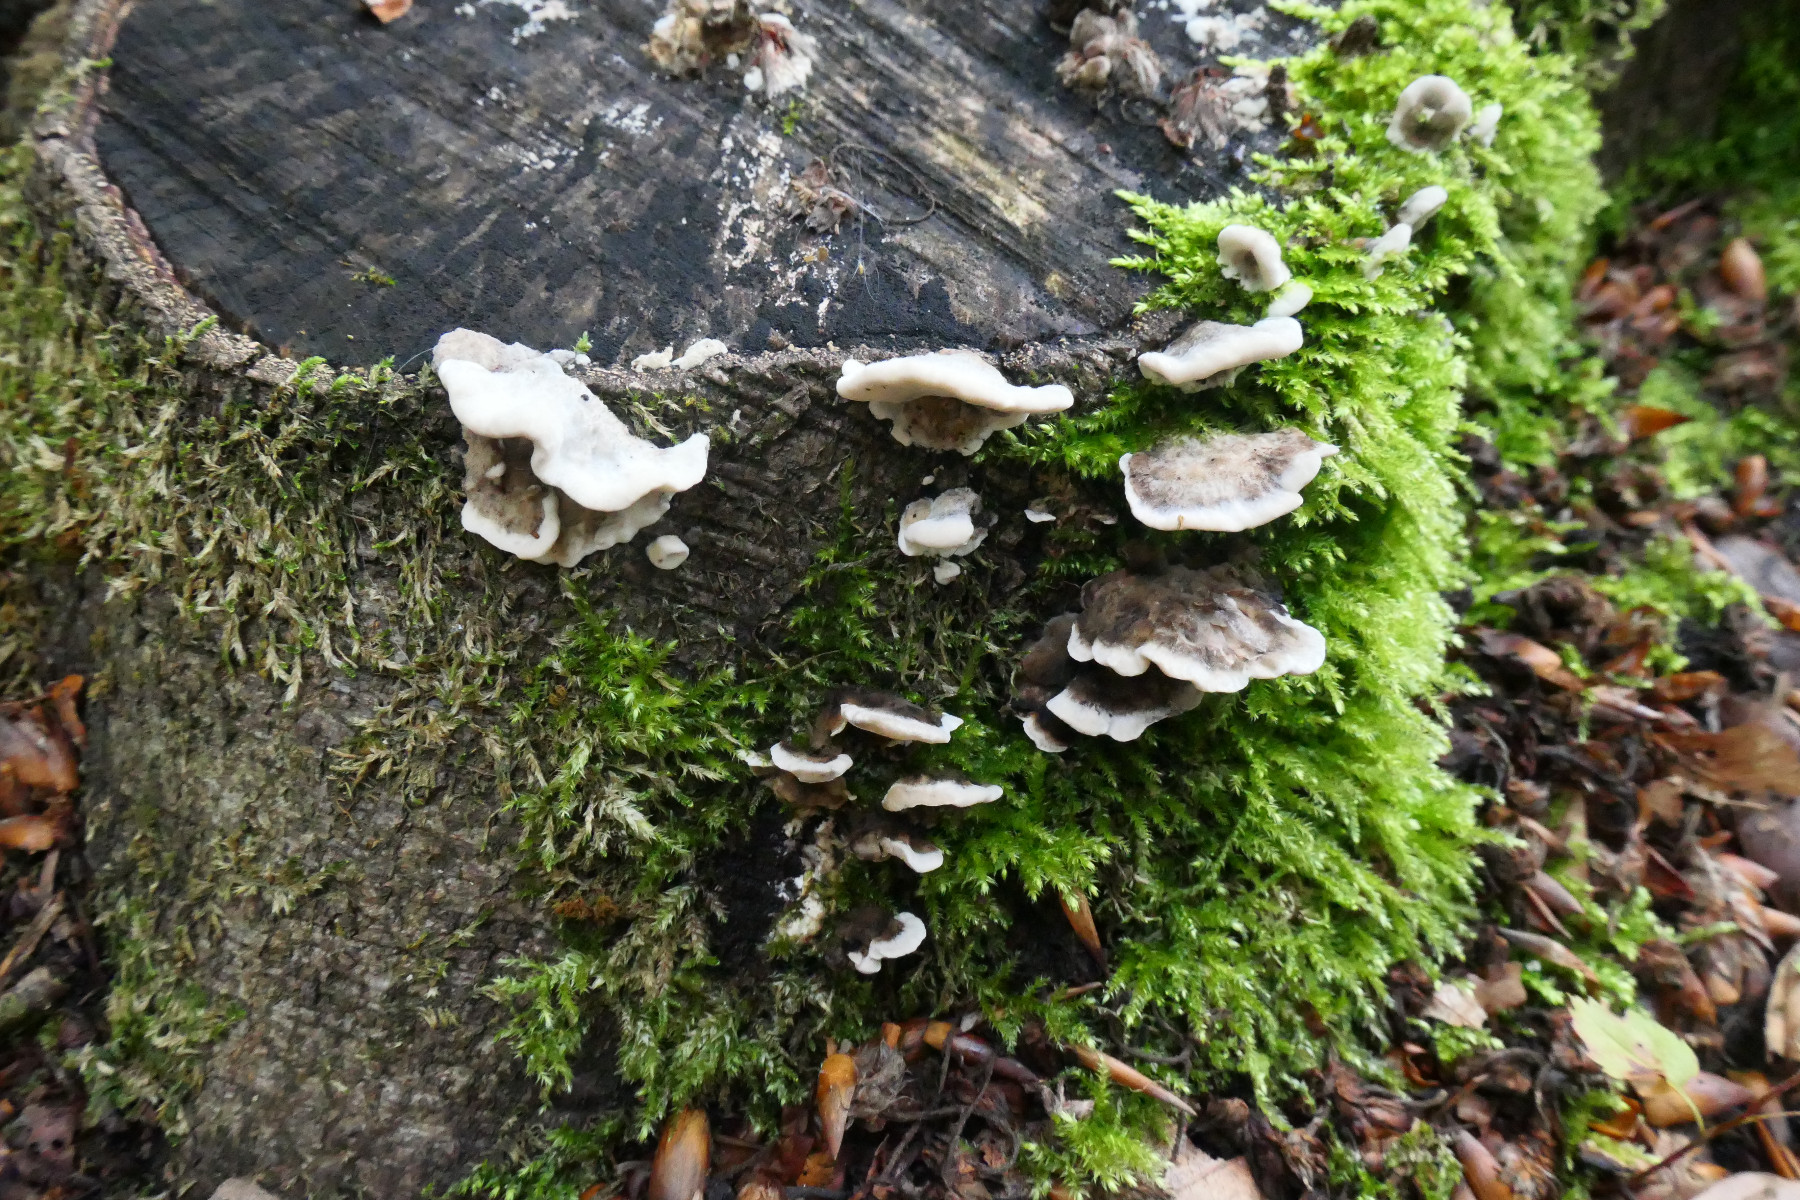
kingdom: Fungi
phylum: Basidiomycota
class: Agaricomycetes
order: Polyporales
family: Phanerochaetaceae
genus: Bjerkandera
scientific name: Bjerkandera adusta
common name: sveden sodporesvamp
